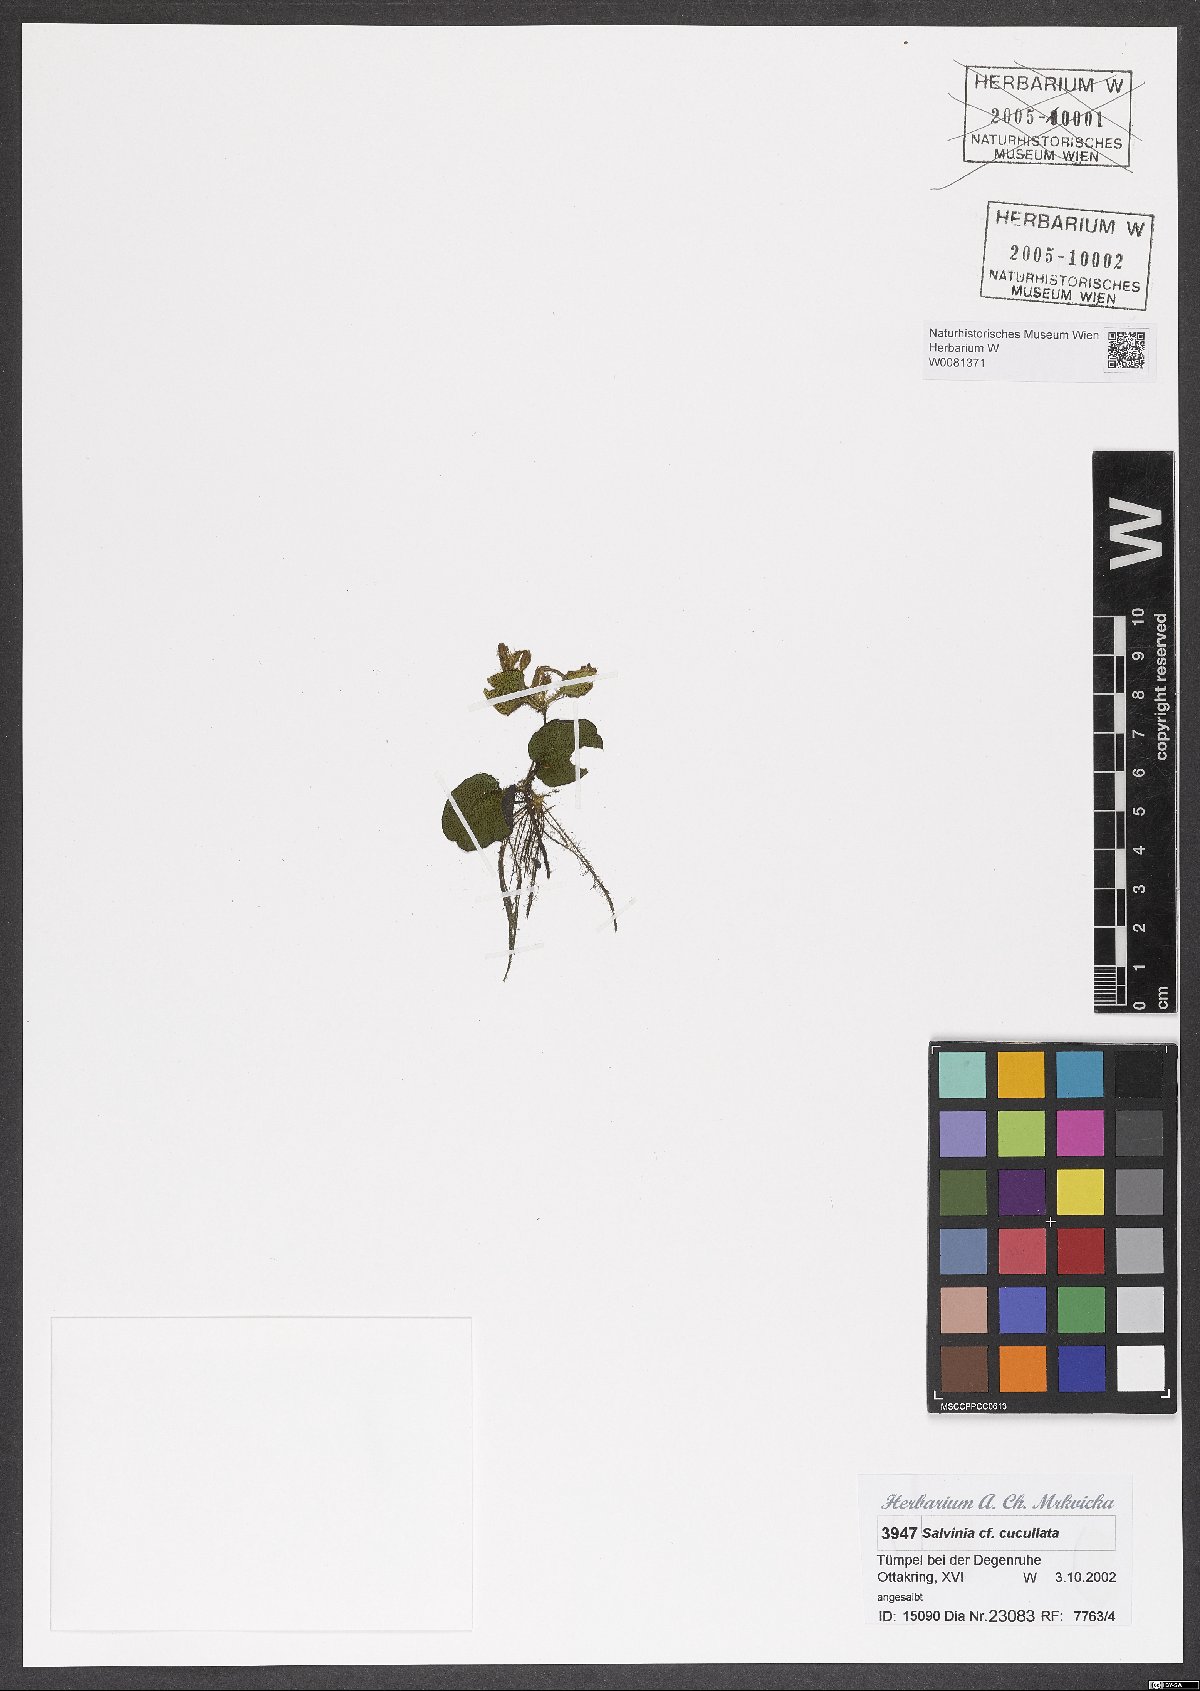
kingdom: Plantae
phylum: Tracheophyta
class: Polypodiopsida
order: Salviniales
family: Salviniaceae
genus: Salvinia
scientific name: Salvinia molesta
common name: Kariba weed
